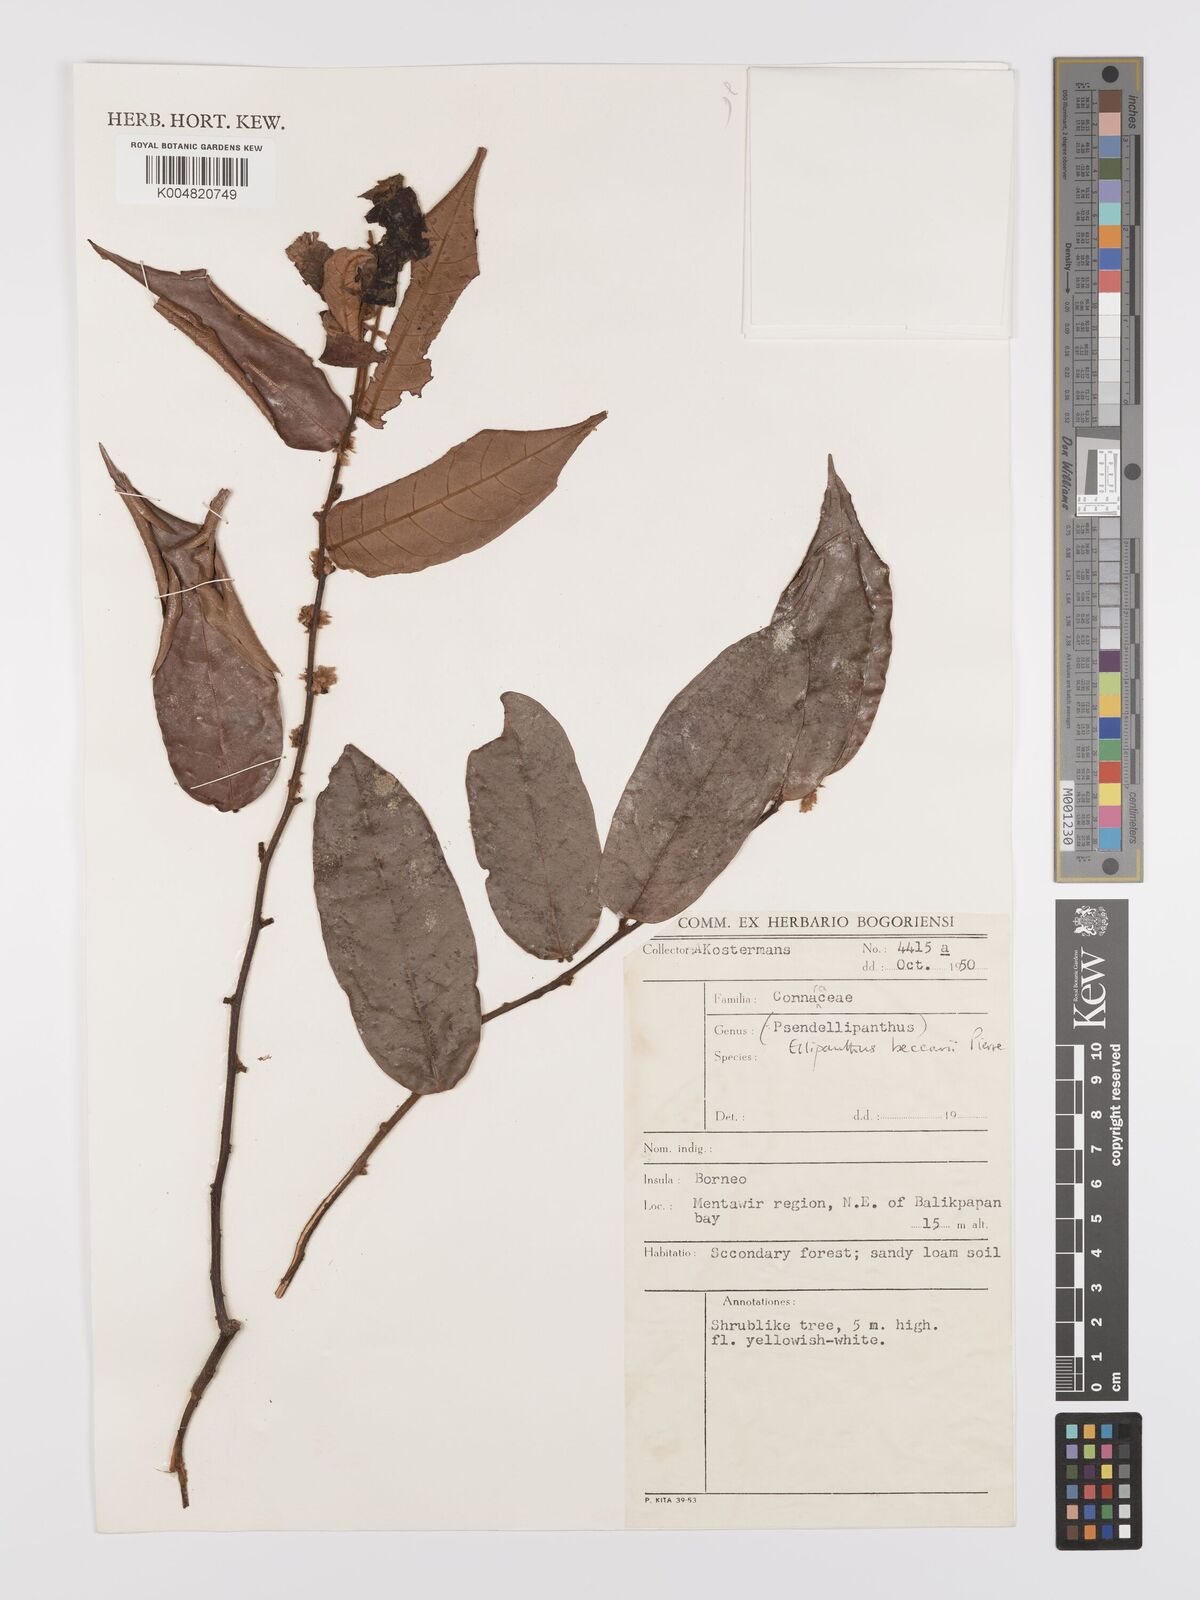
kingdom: Plantae
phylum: Tracheophyta
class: Magnoliopsida
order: Oxalidales
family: Connaraceae
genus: Ellipanthus
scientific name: Ellipanthus beccarii
